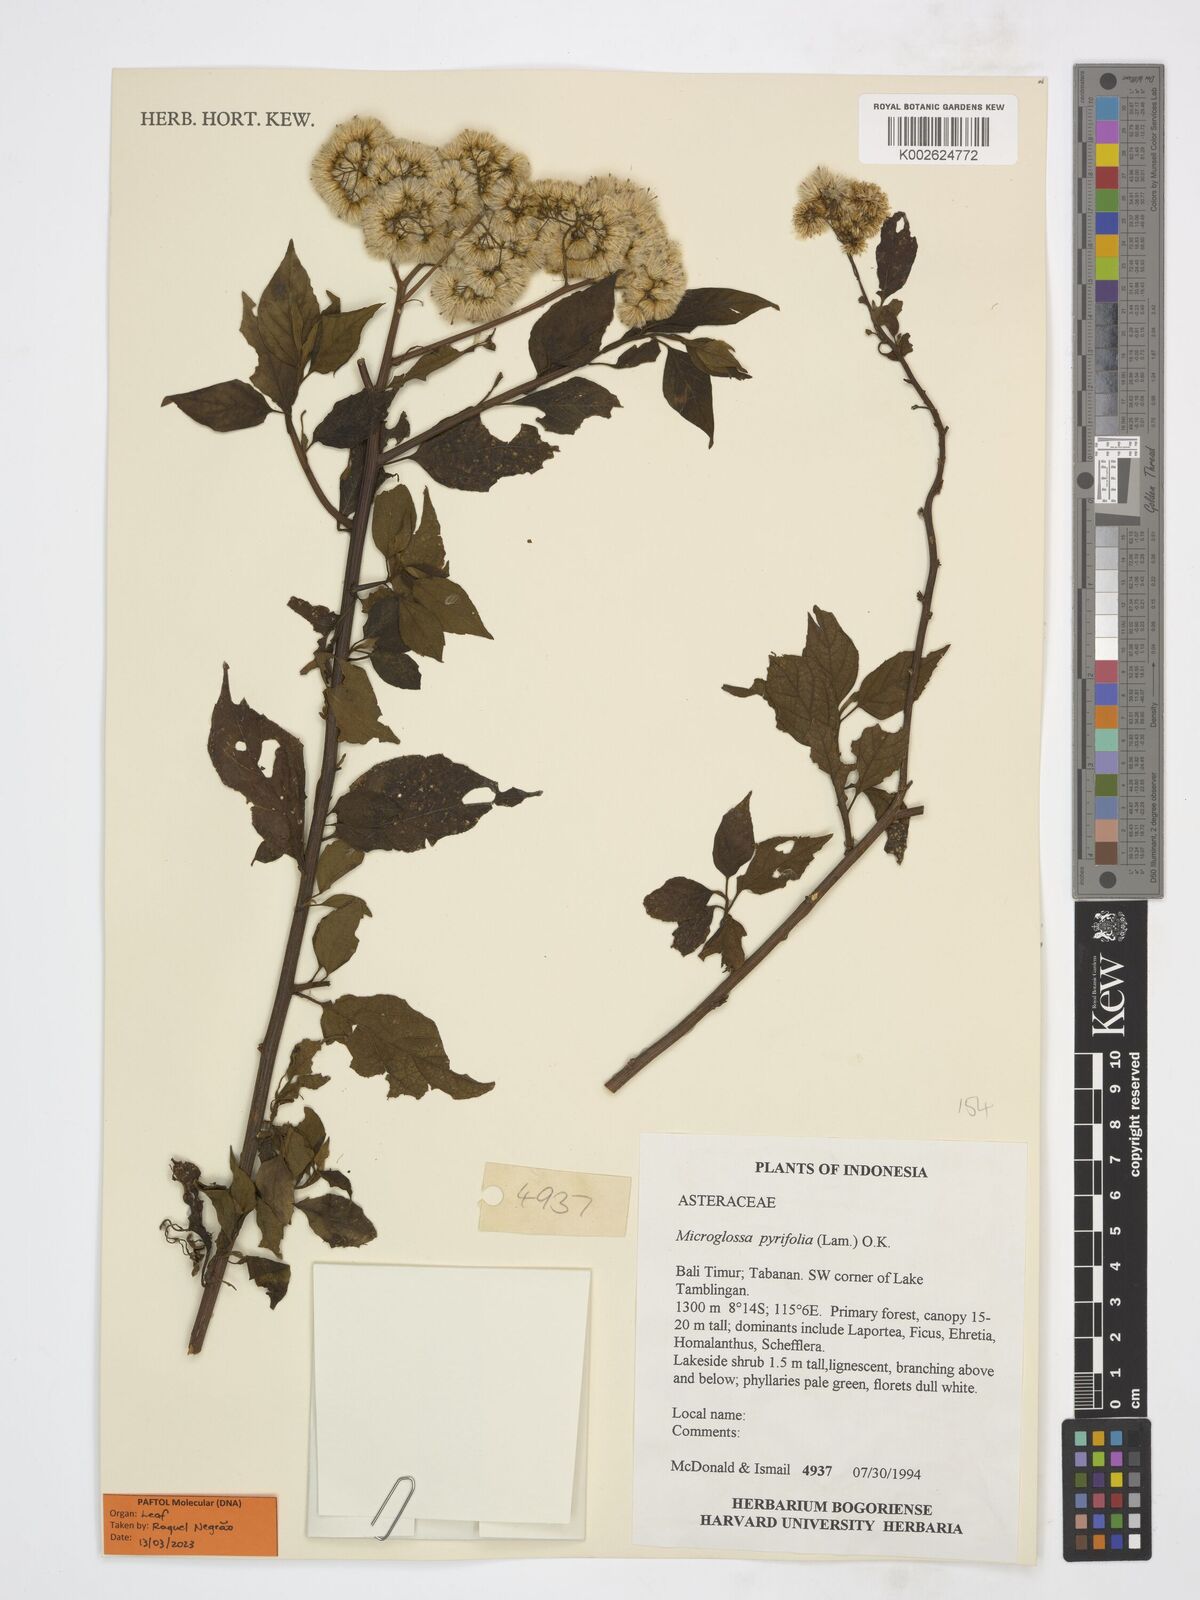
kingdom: Plantae
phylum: Tracheophyta
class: Magnoliopsida
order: Asterales
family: Asteraceae
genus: Microglossa
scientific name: Microglossa pyrifolia
